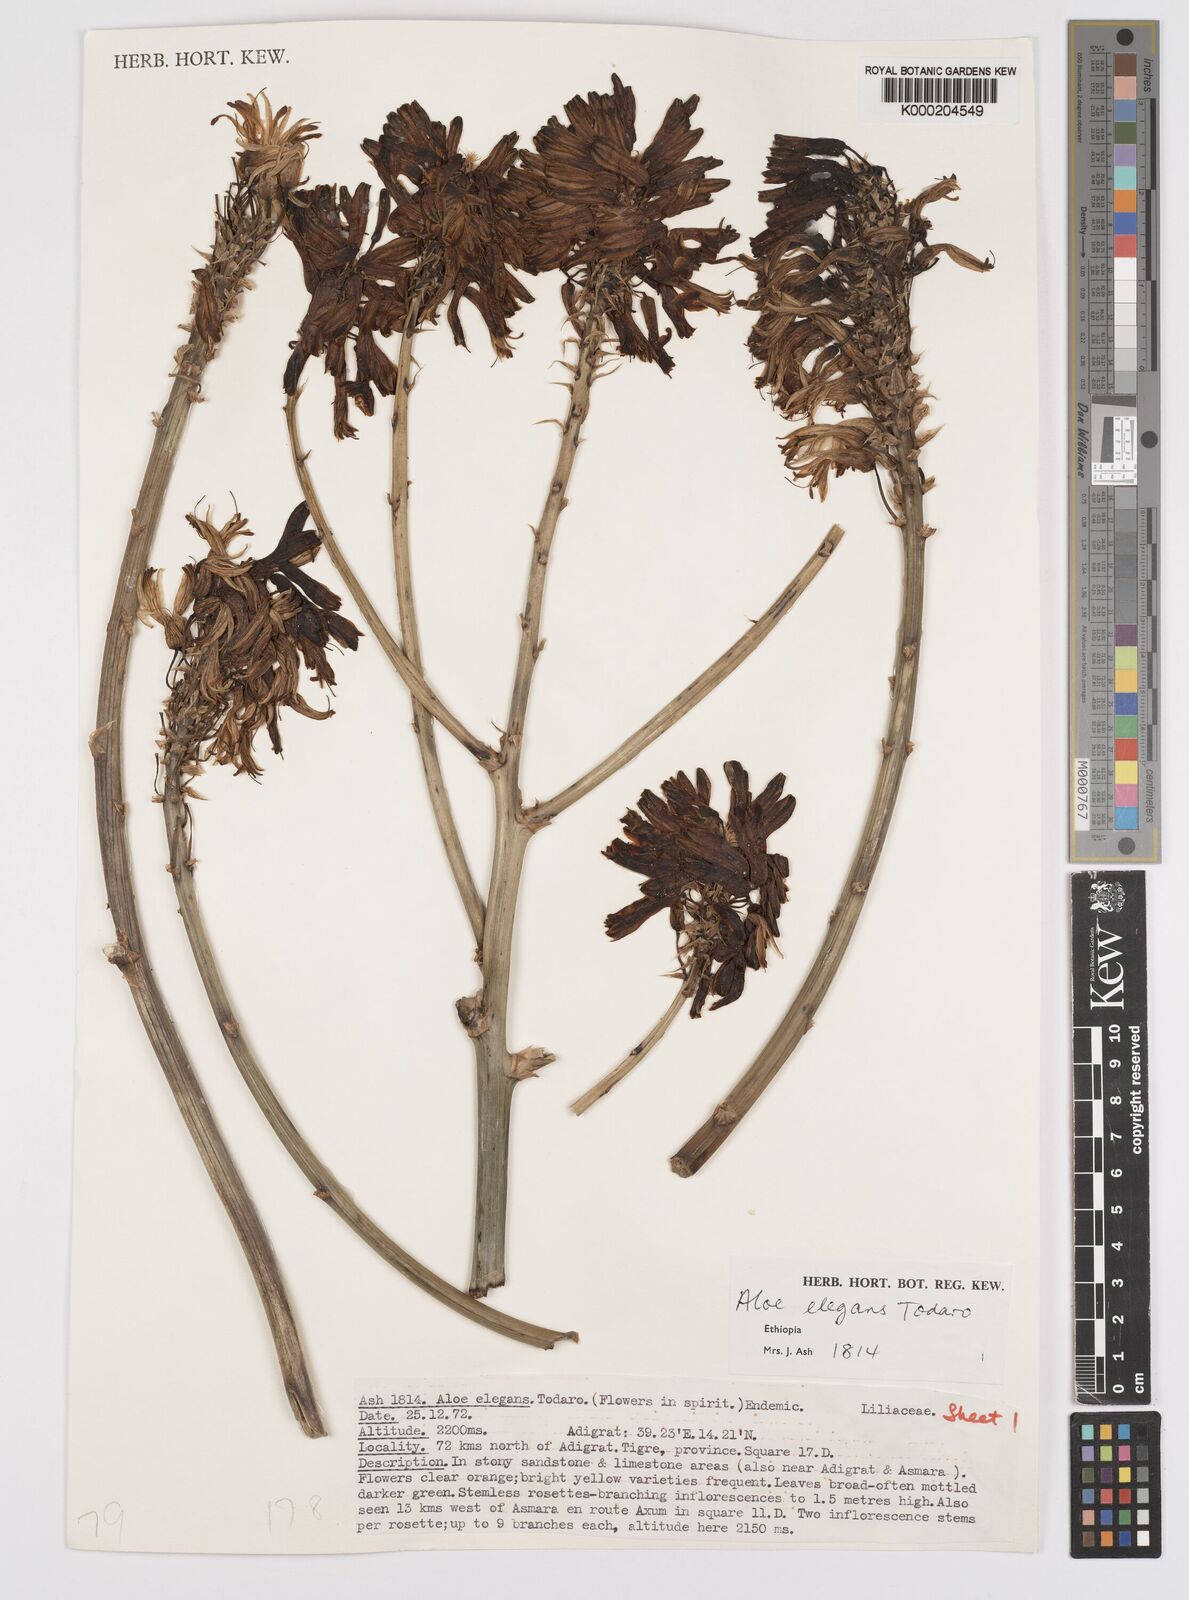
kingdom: Plantae
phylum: Tracheophyta
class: Liliopsida
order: Asparagales
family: Asphodelaceae
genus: Aloe
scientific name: Aloe elegans
